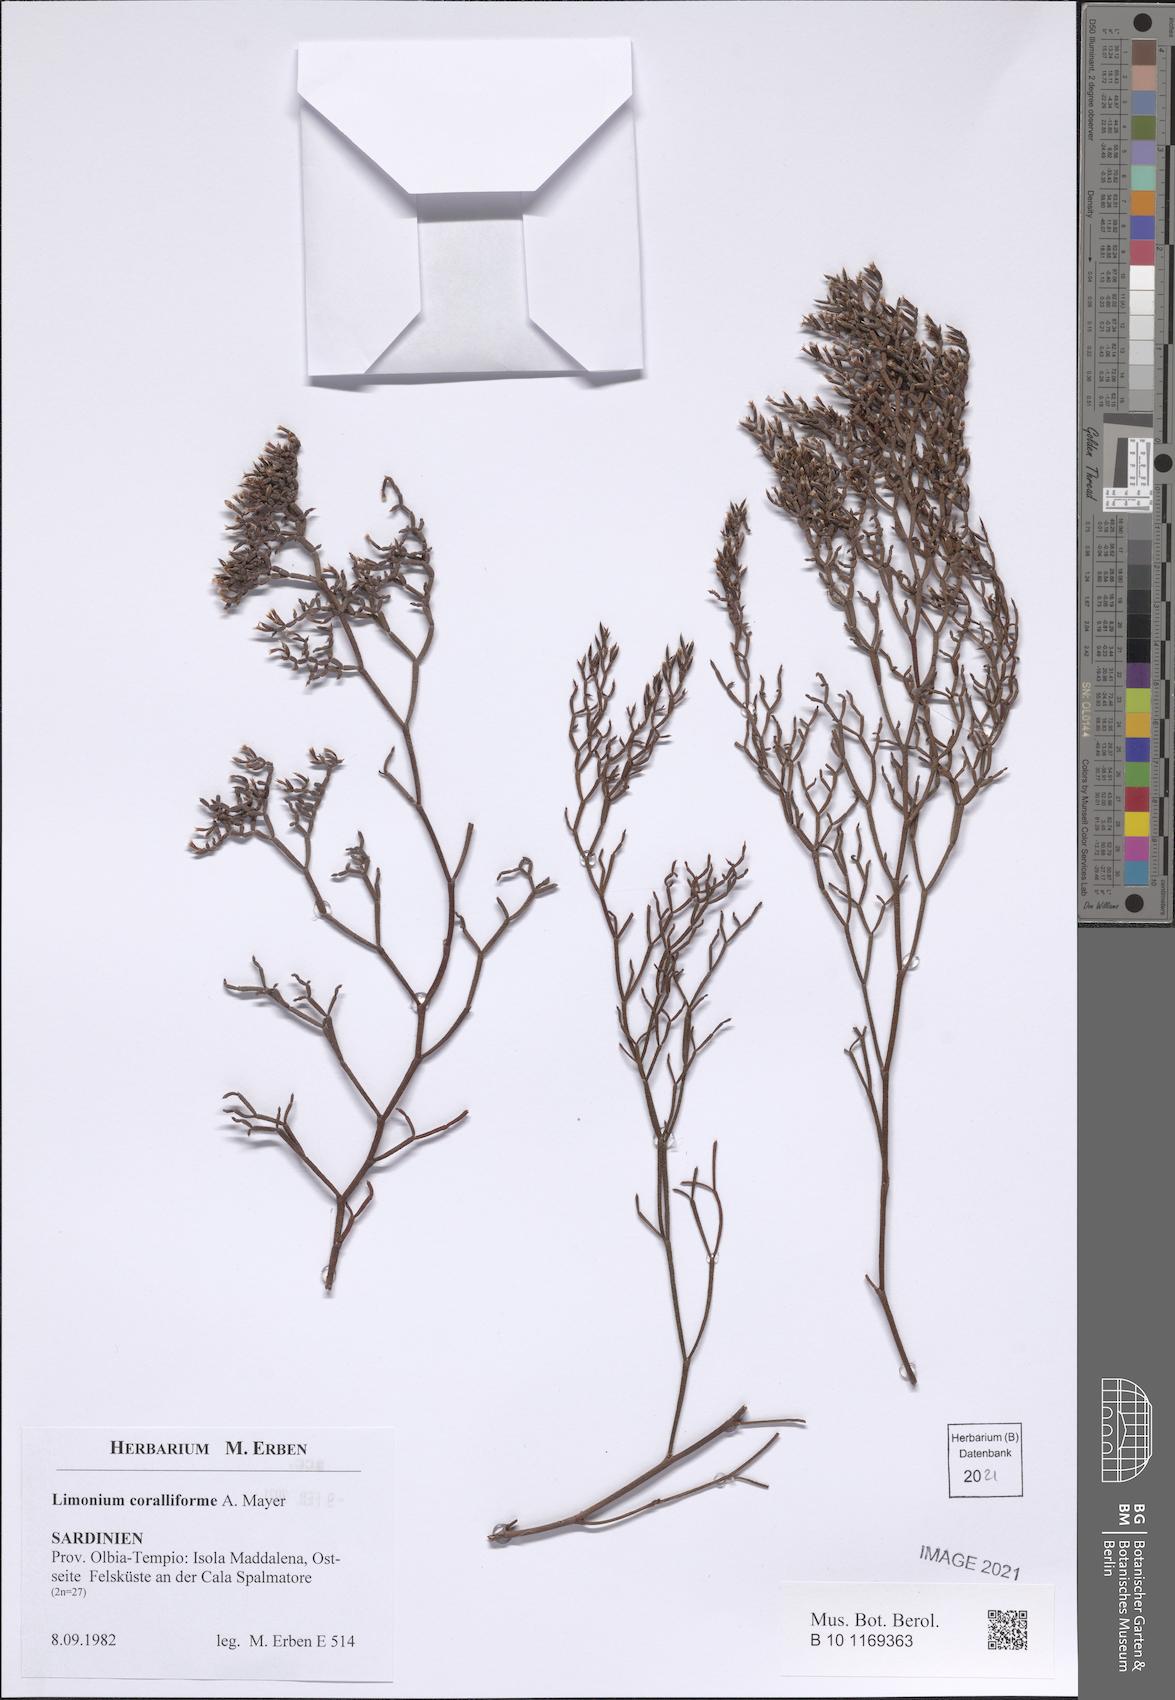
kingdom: Plantae
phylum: Tracheophyta
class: Magnoliopsida
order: Caryophyllales
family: Plumbaginaceae
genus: Limonium
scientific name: Limonium coralliforme
